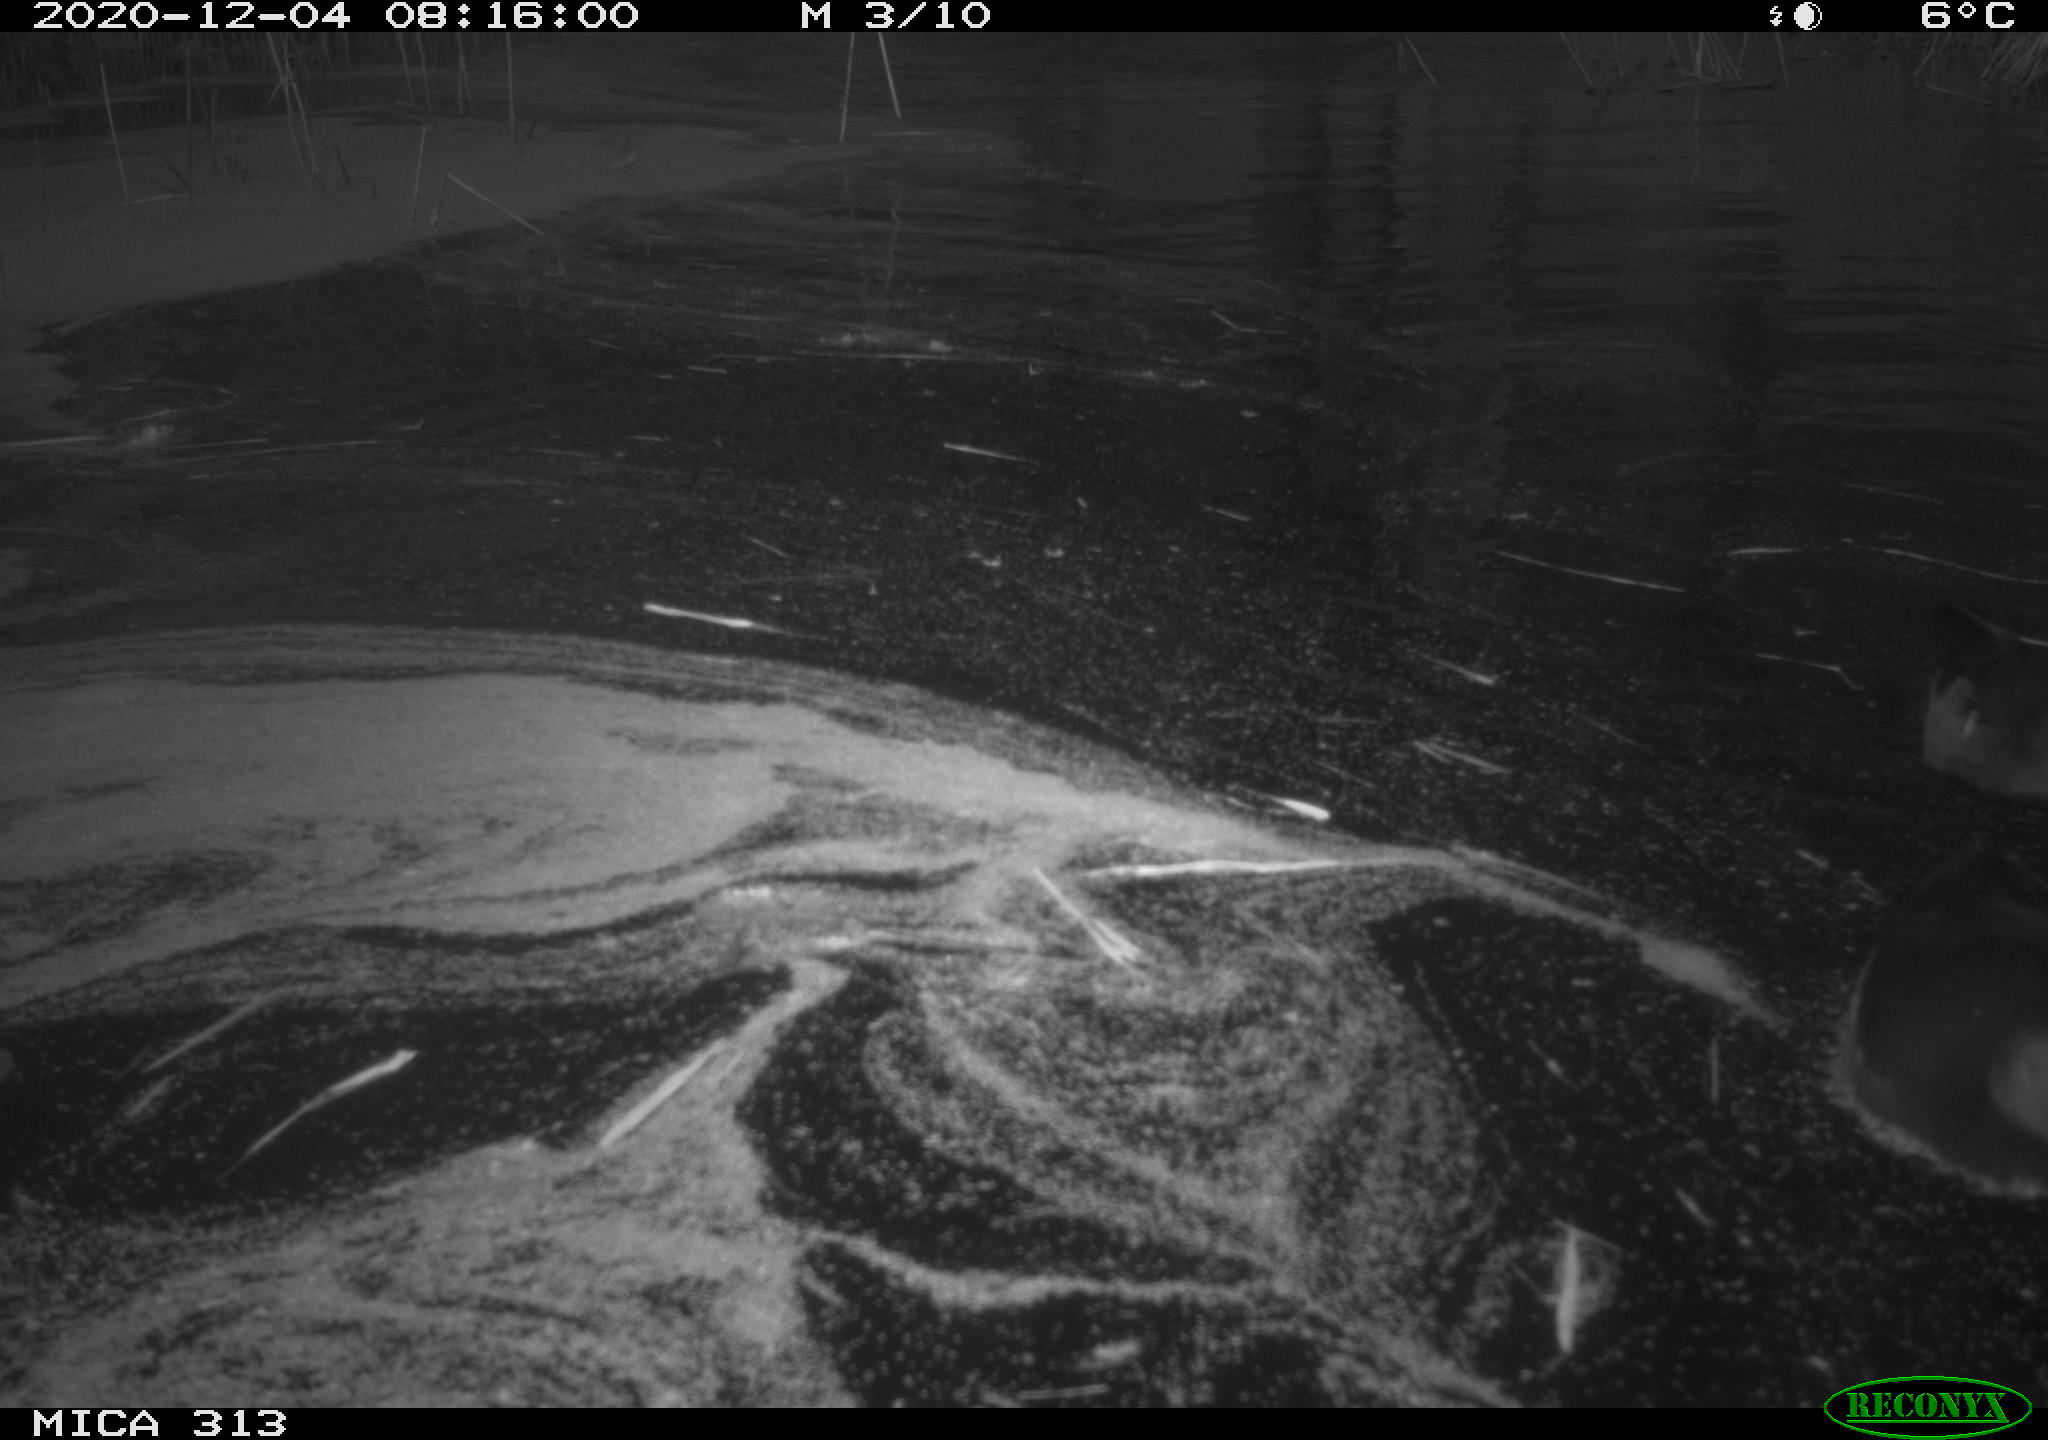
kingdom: Animalia
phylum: Chordata
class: Aves
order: Gruiformes
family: Rallidae
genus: Gallinula
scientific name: Gallinula chloropus
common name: Common moorhen
